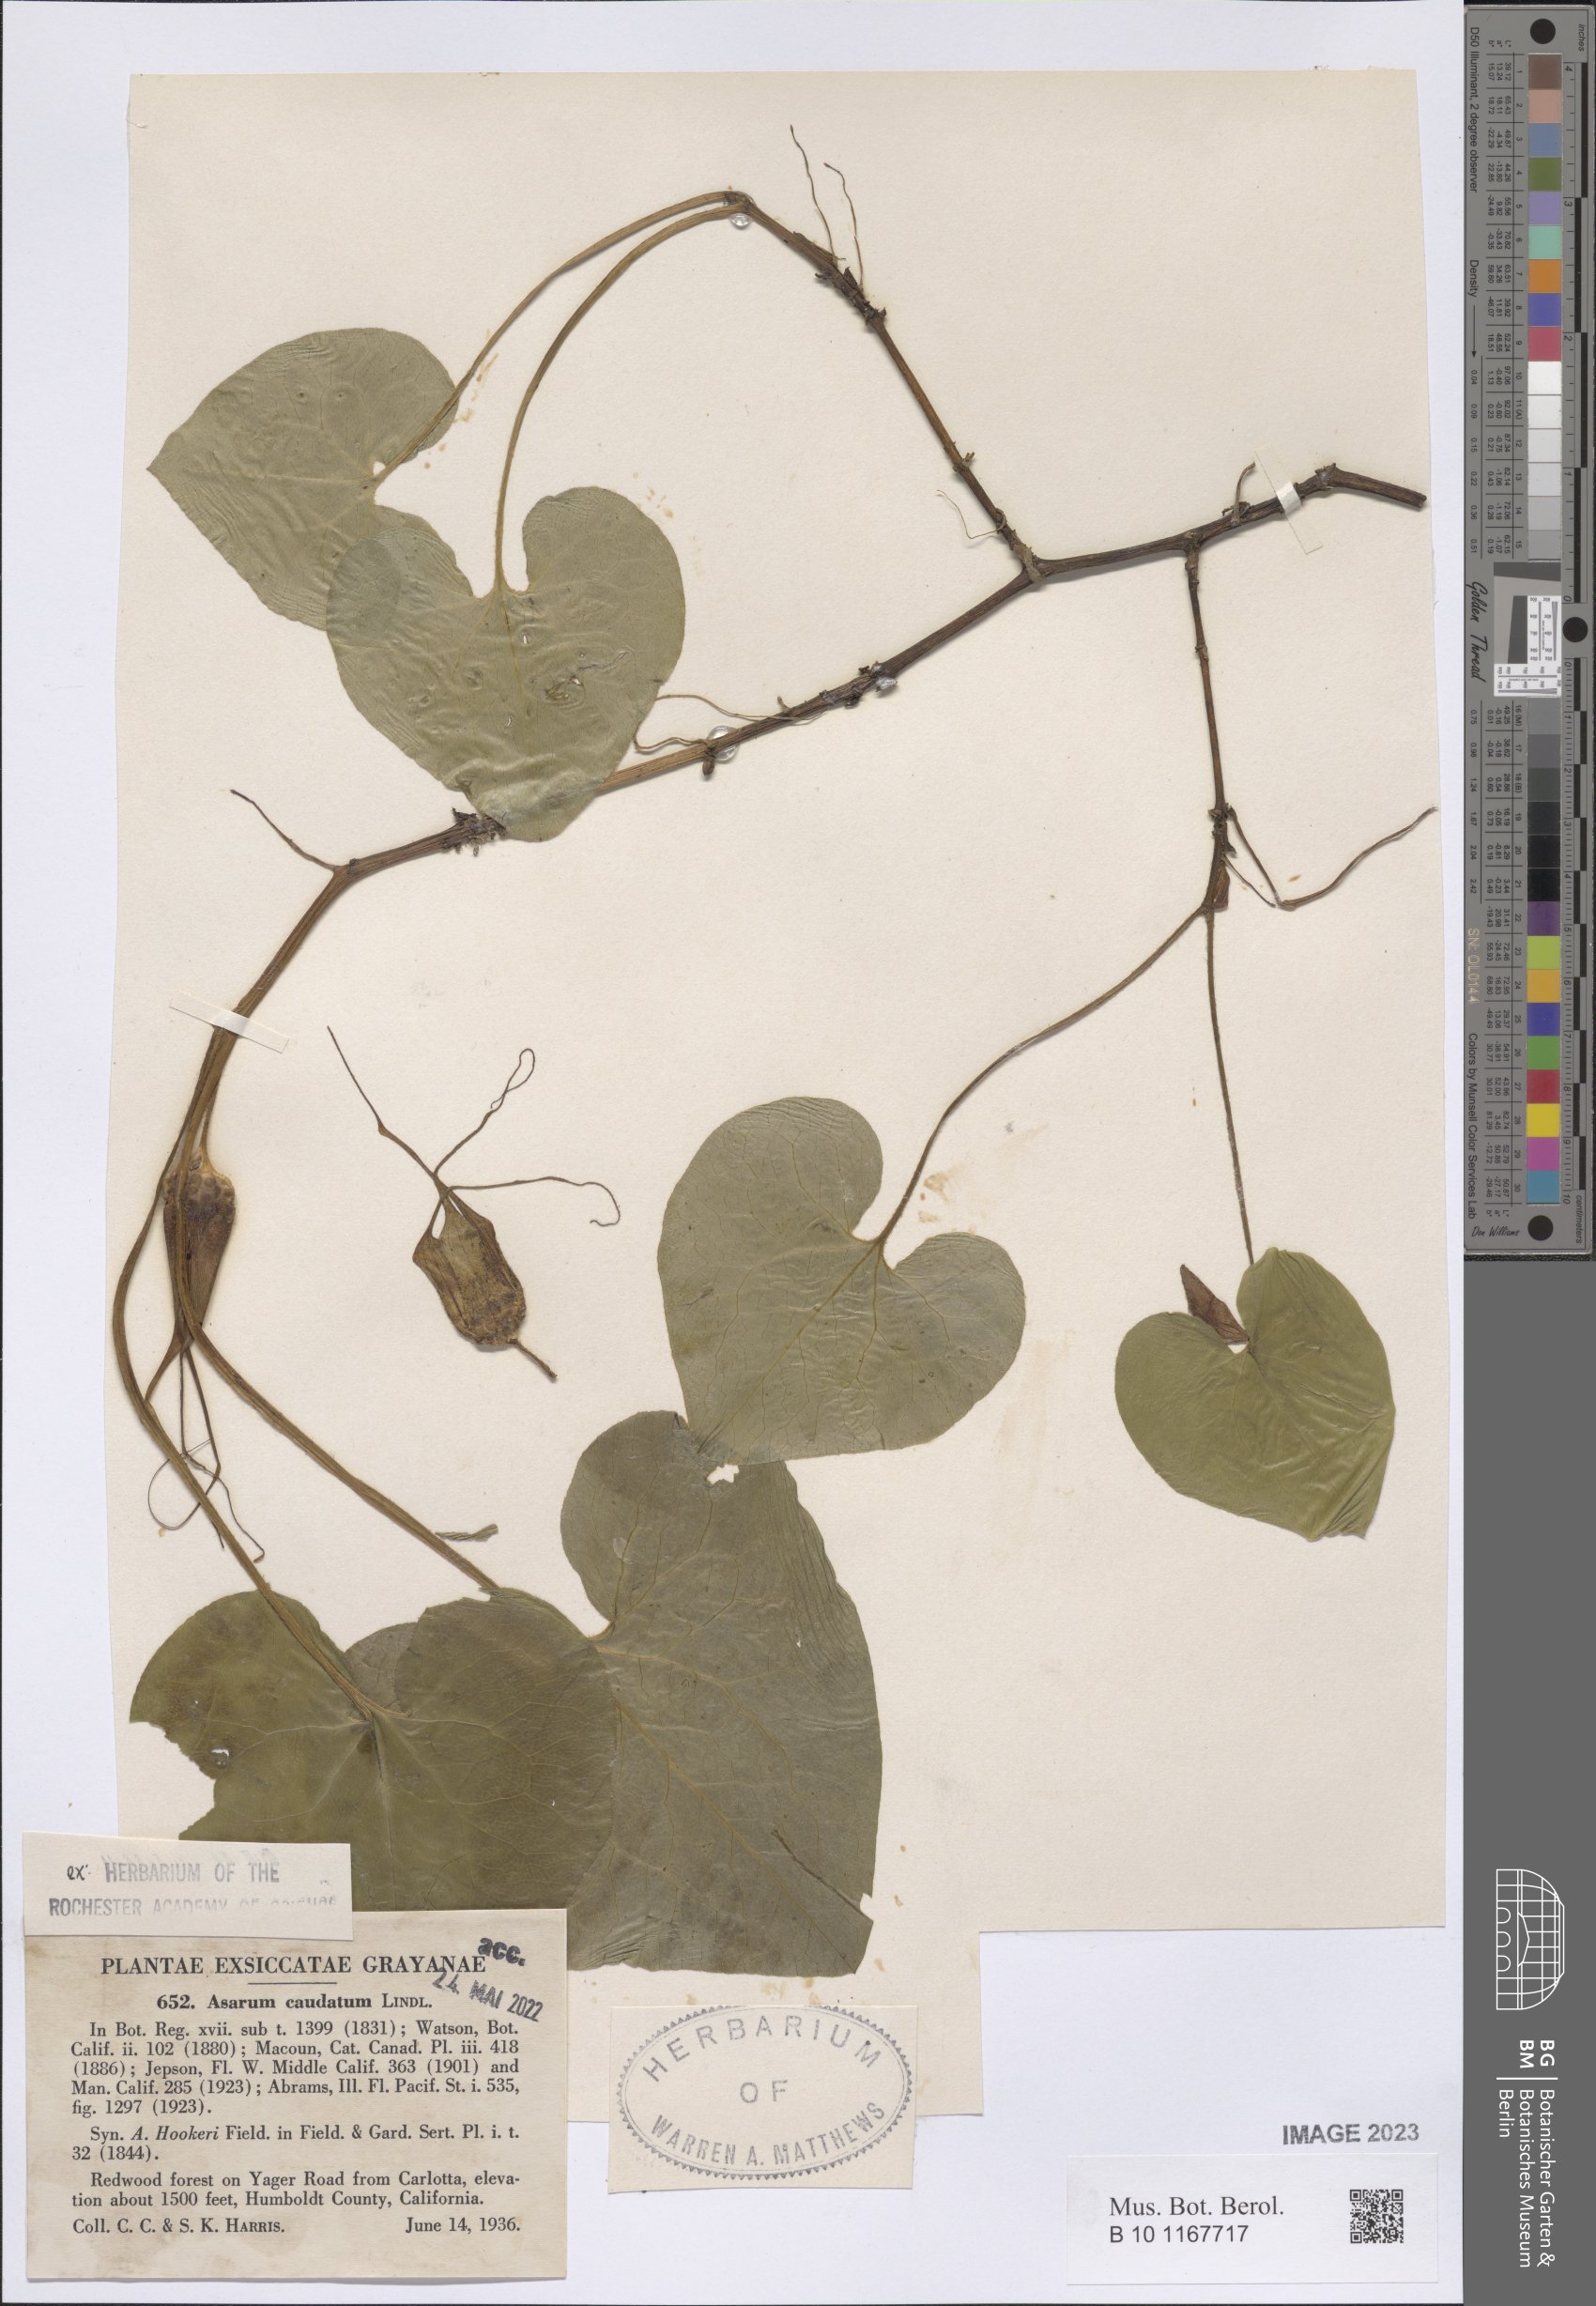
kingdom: Plantae
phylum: Tracheophyta
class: Magnoliopsida
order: Piperales
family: Aristolochiaceae
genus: Asarum
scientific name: Asarum caudatum
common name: Wild ginger
